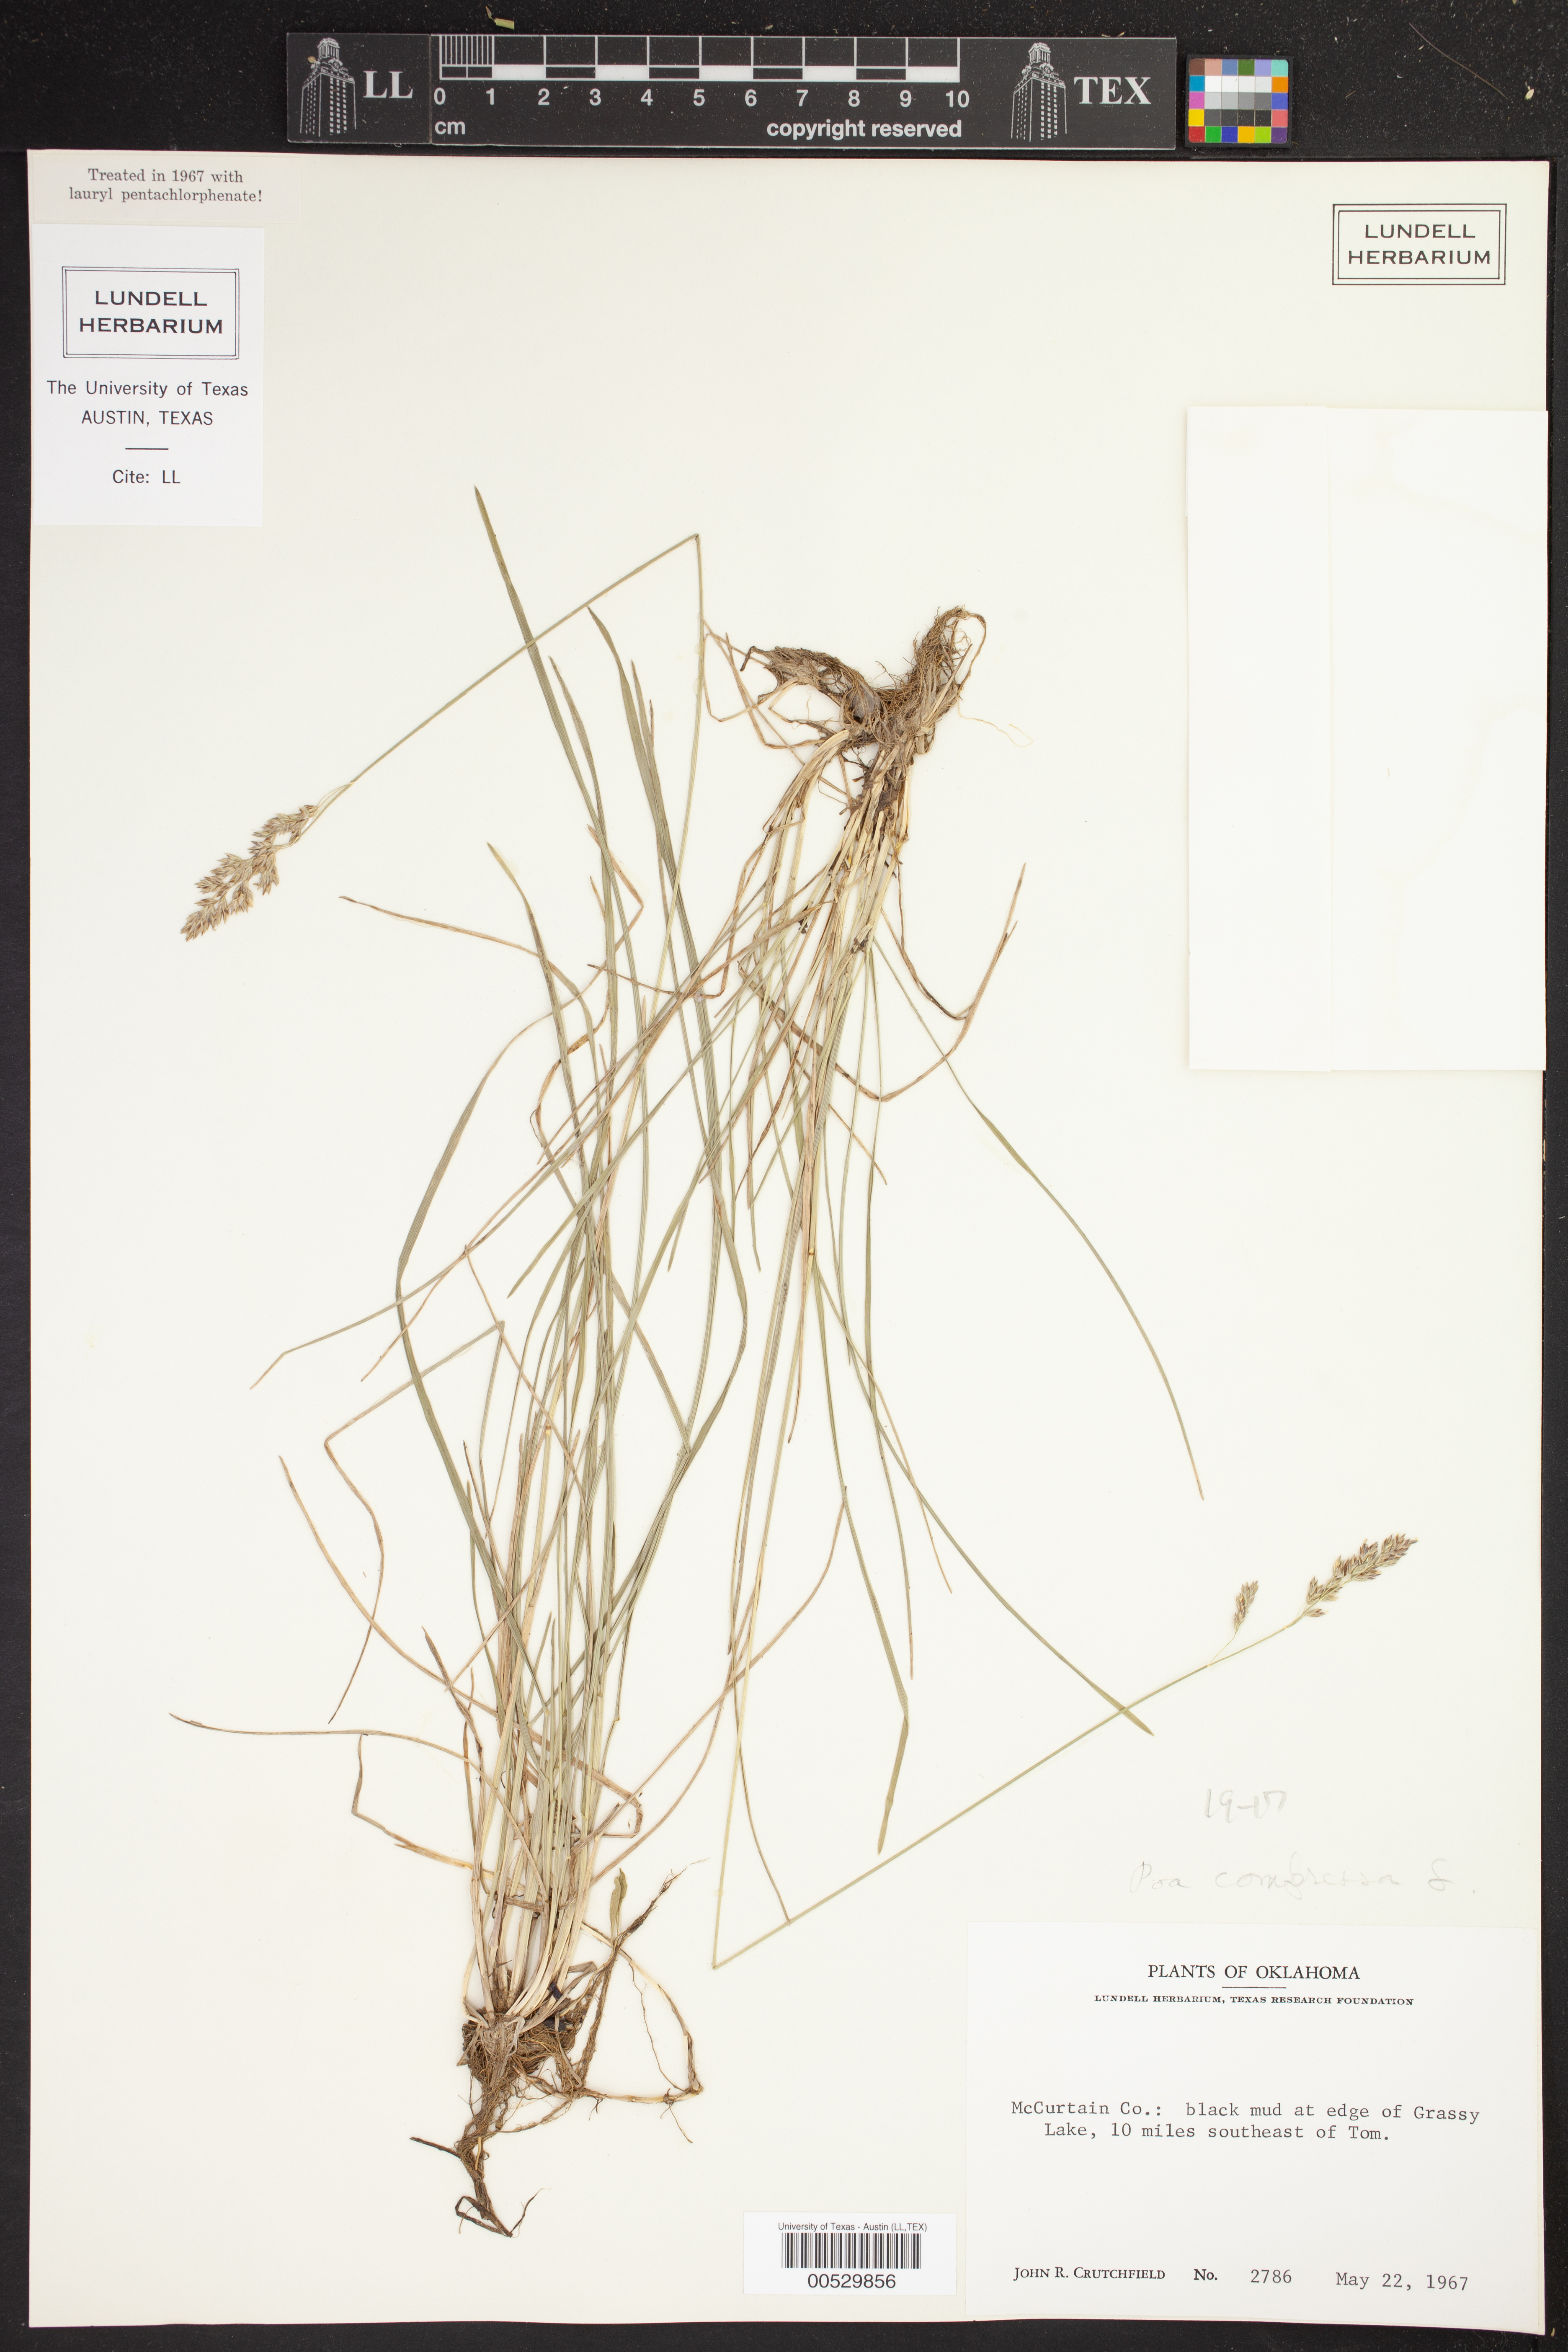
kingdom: Plantae
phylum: Tracheophyta
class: Liliopsida
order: Poales
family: Poaceae
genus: Poa
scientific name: Poa compressa
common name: Canada bluegrass
